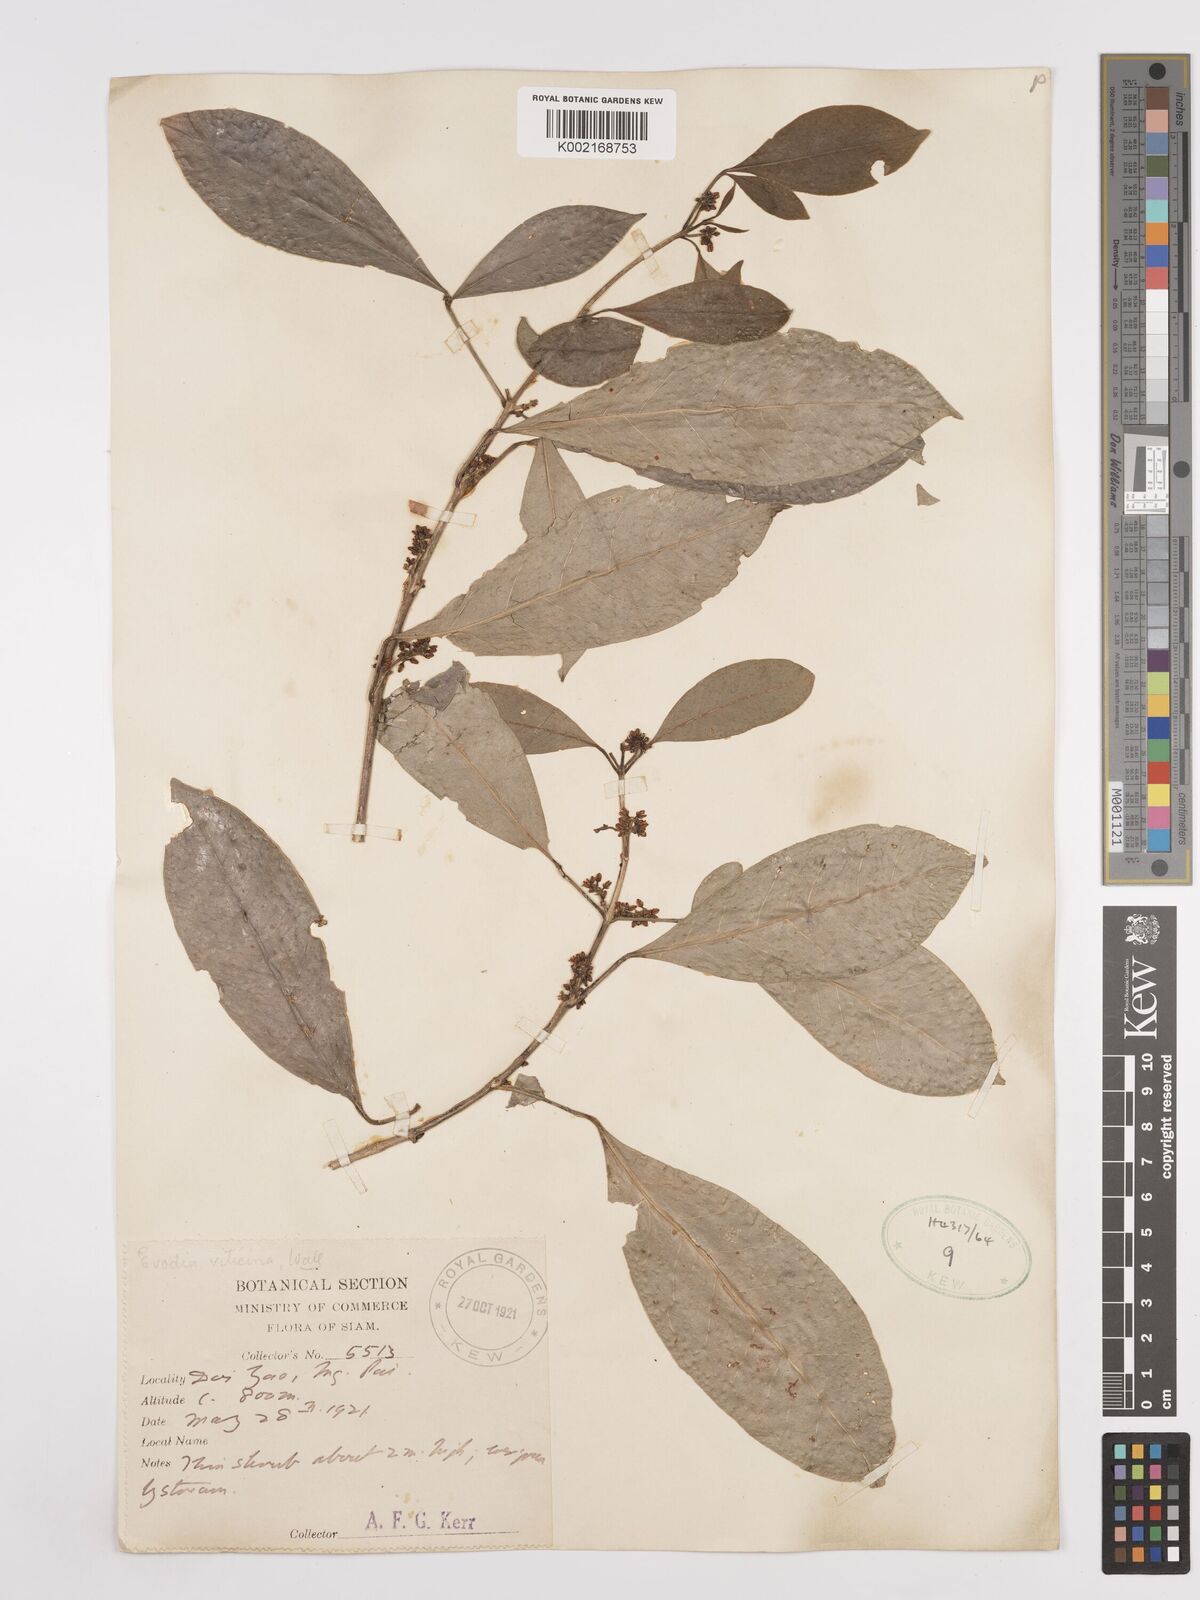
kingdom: Plantae
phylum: Tracheophyta
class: Magnoliopsida
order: Sapindales
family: Rutaceae
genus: Euodia
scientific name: Euodia
